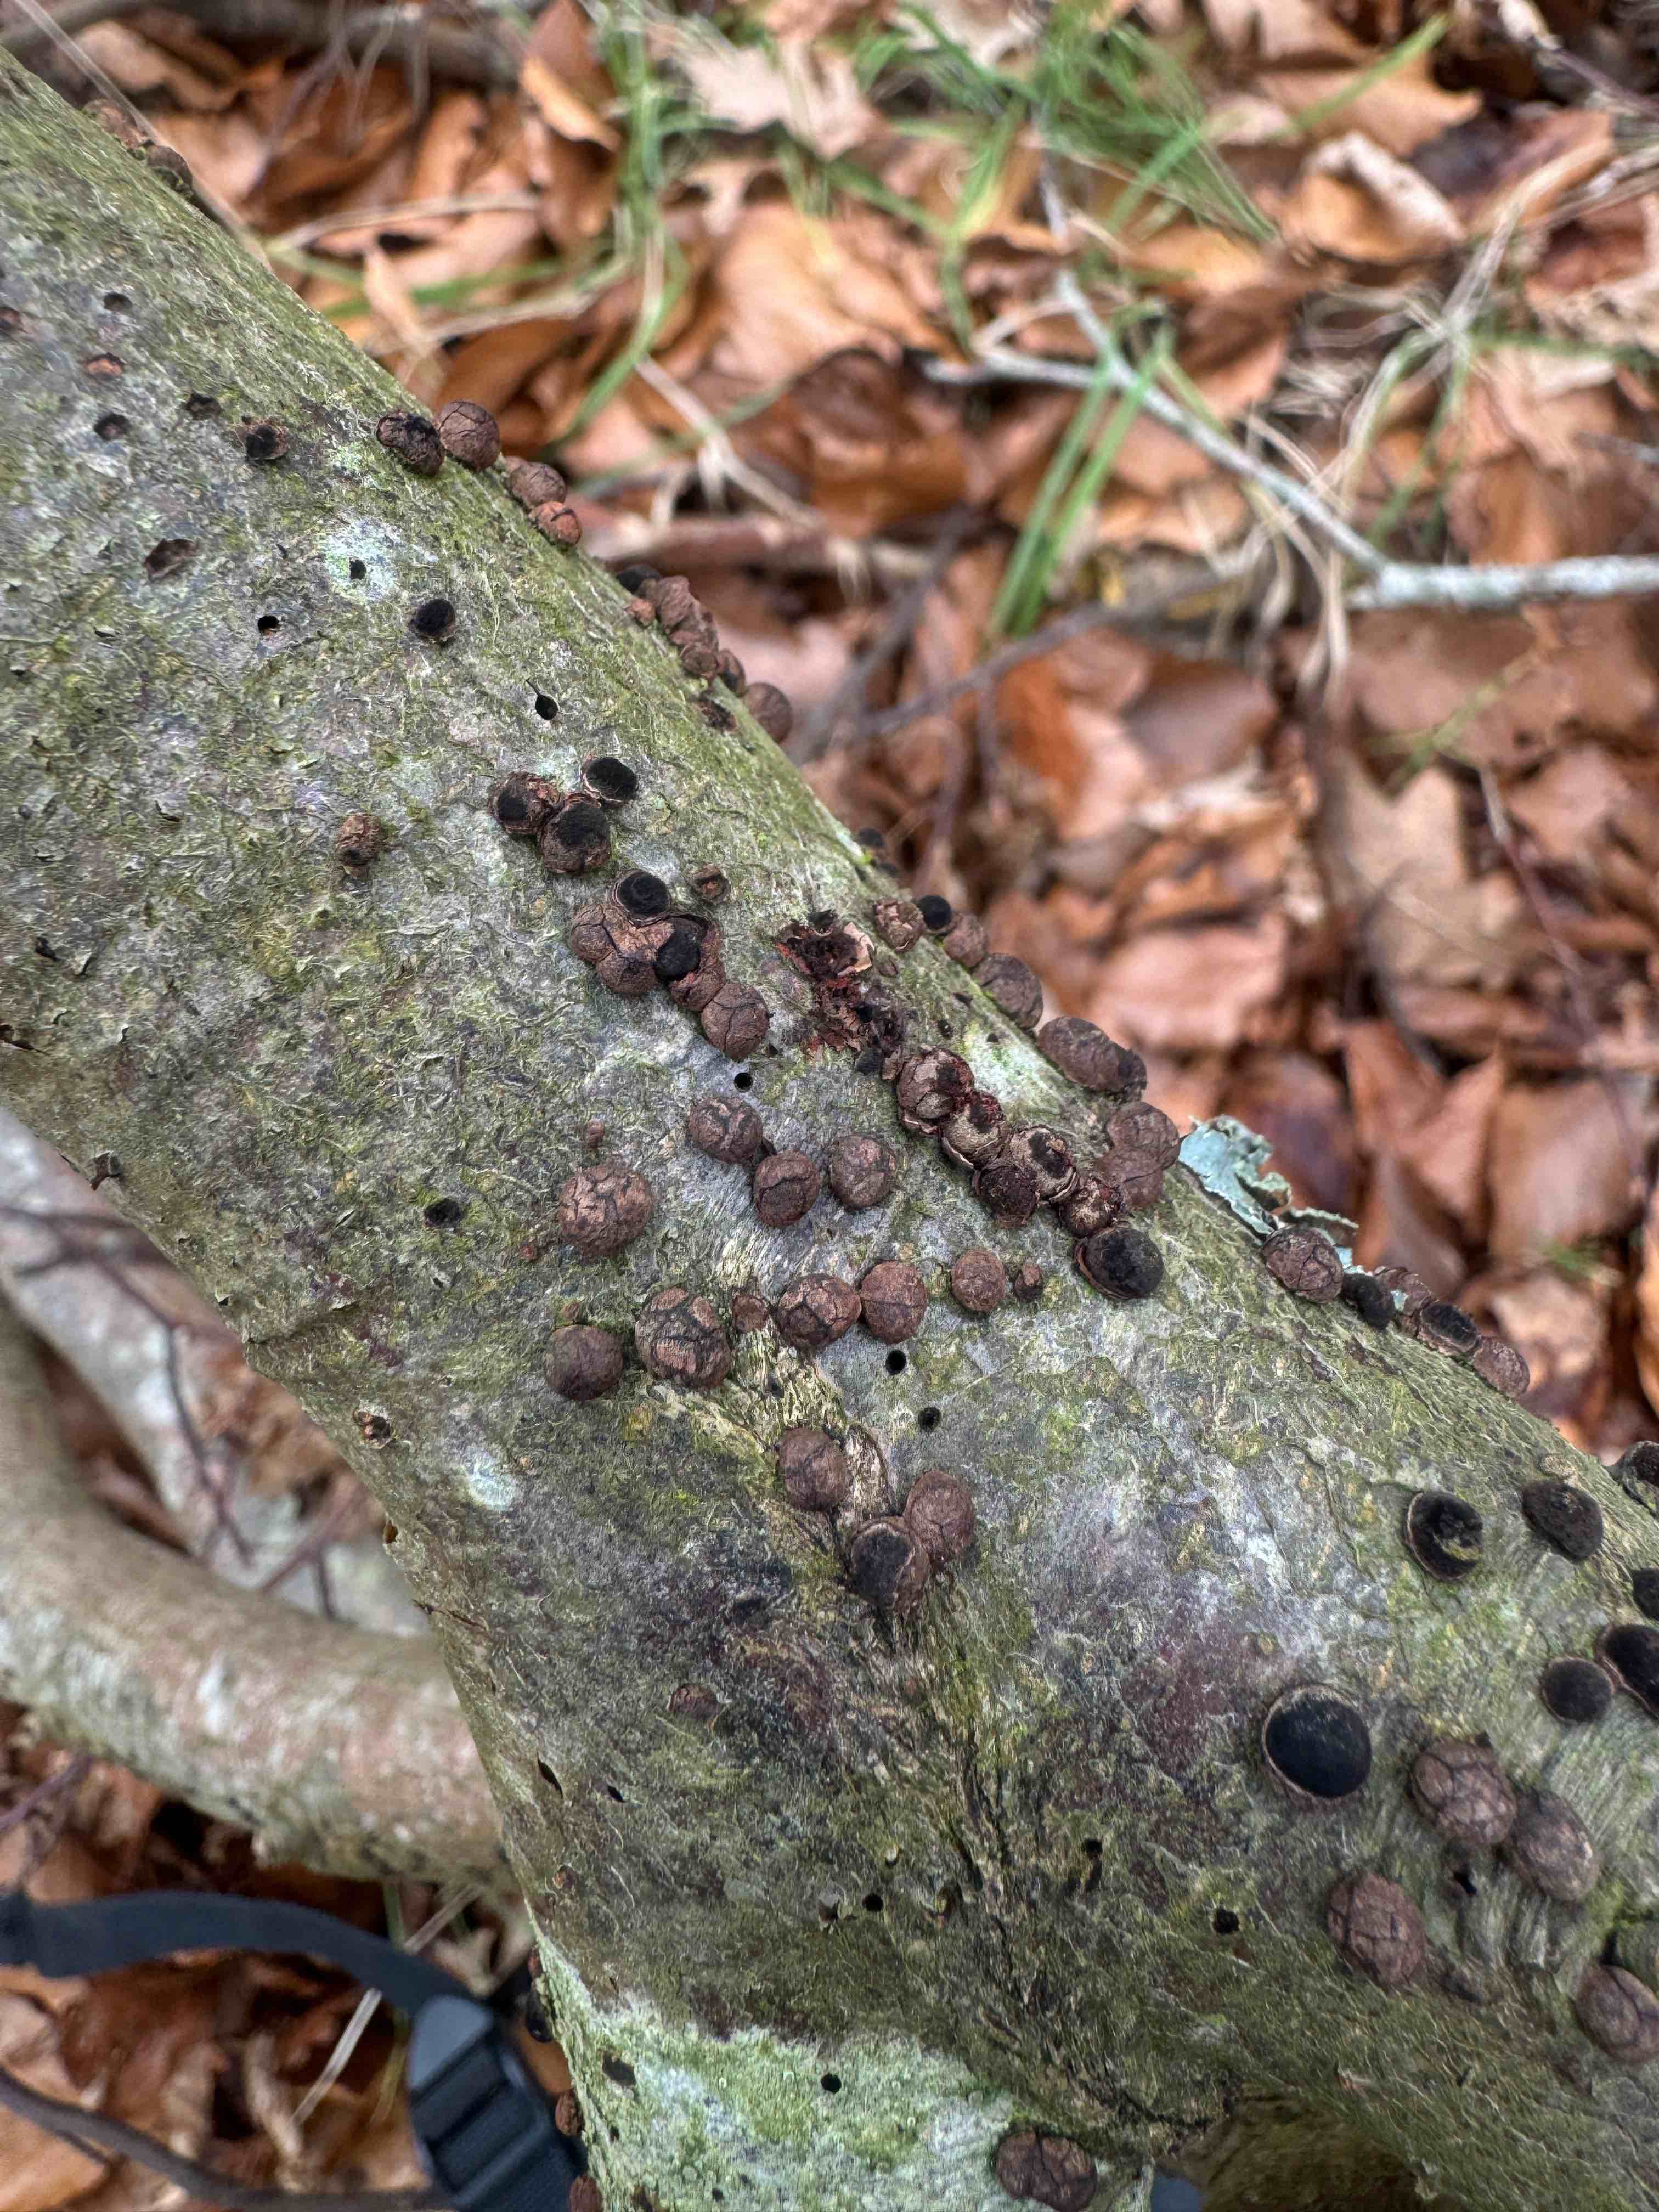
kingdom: Fungi
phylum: Ascomycota
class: Sordariomycetes
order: Xylariales
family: Hypoxylaceae
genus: Hypoxylon
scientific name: Hypoxylon fragiforme
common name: kuljordbær
